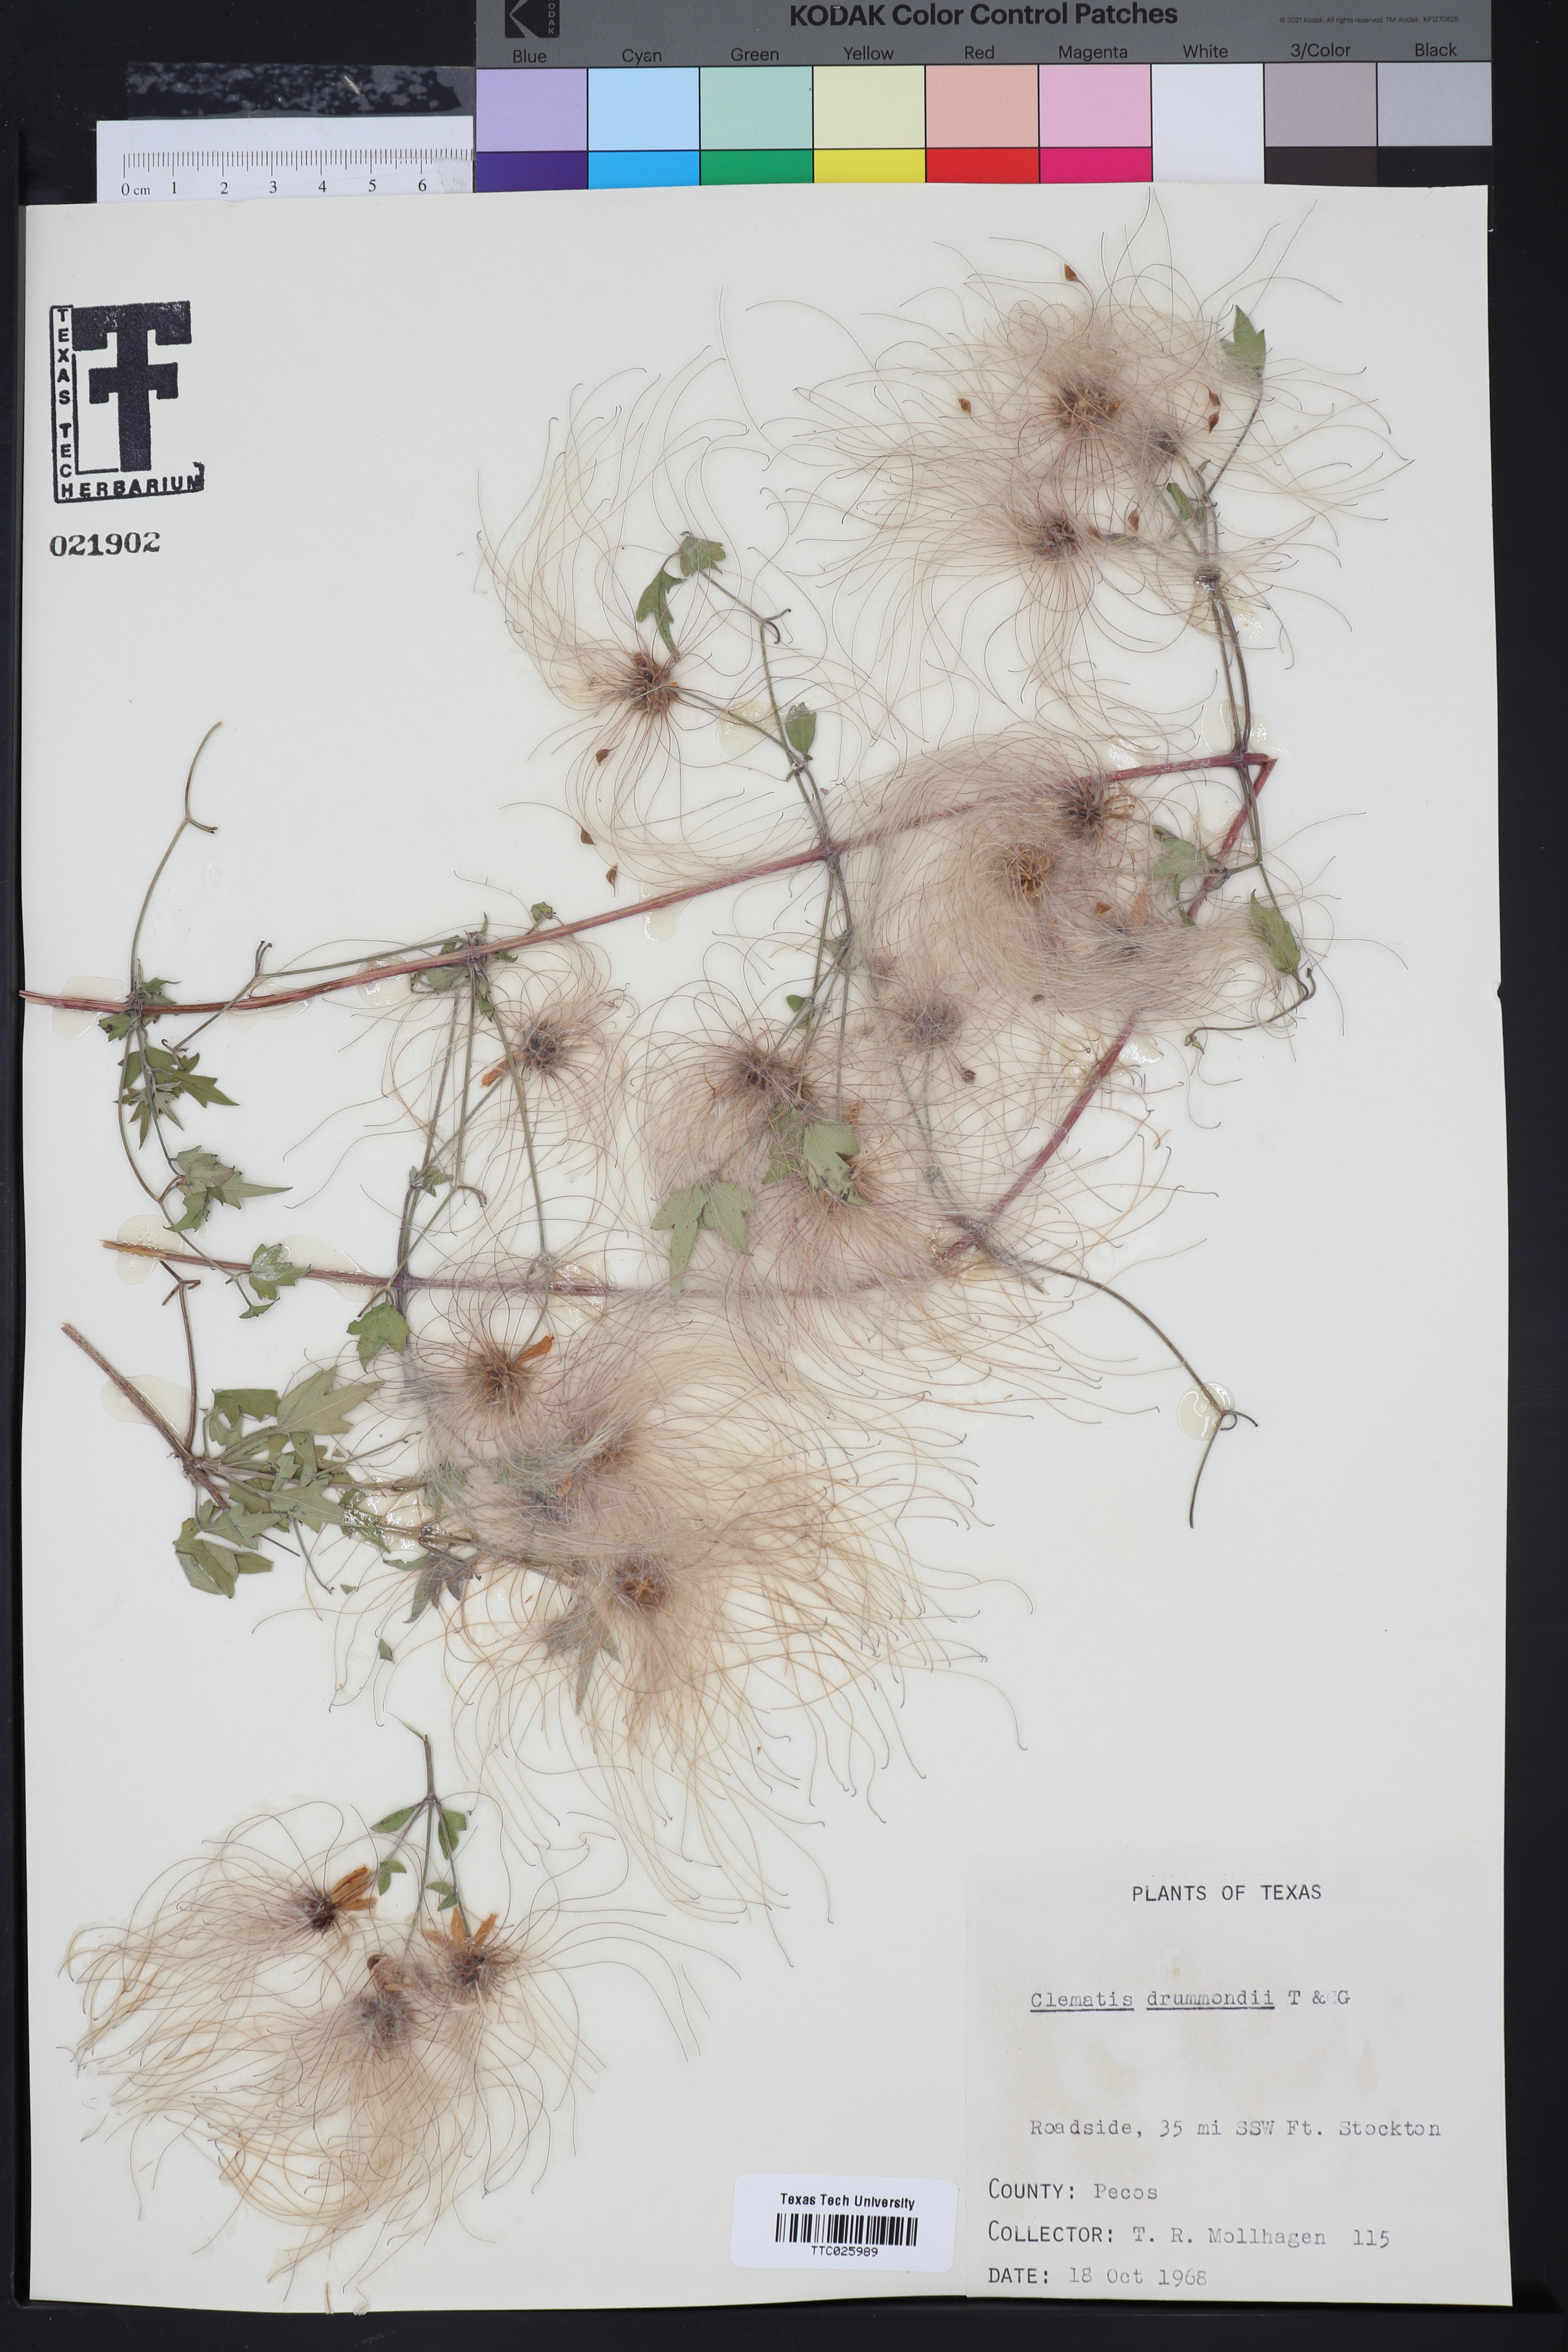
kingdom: Plantae
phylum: Tracheophyta
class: Magnoliopsida
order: Ranunculales
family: Ranunculaceae
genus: Clematis
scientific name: Clematis drummondii
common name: Texas virgin's bower
